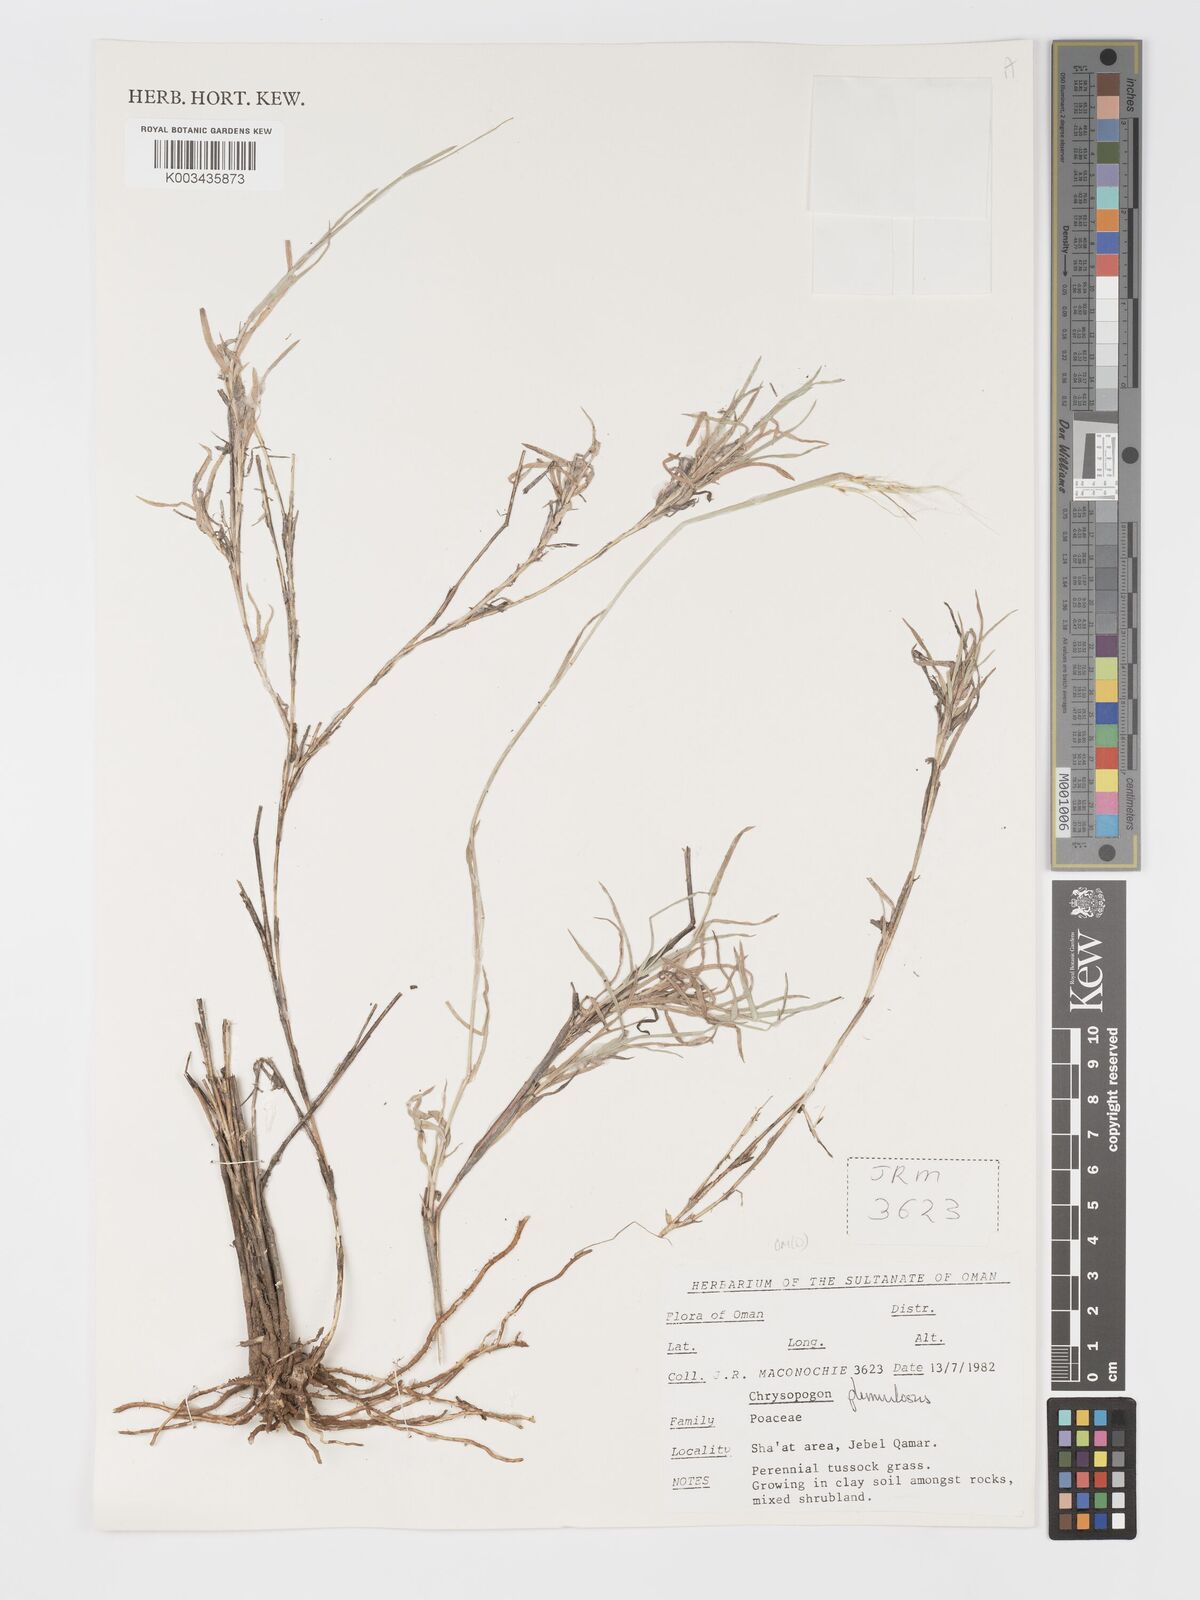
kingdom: Plantae
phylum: Tracheophyta
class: Liliopsida
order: Poales
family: Poaceae
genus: Chrysopogon
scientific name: Chrysopogon plumulosus
